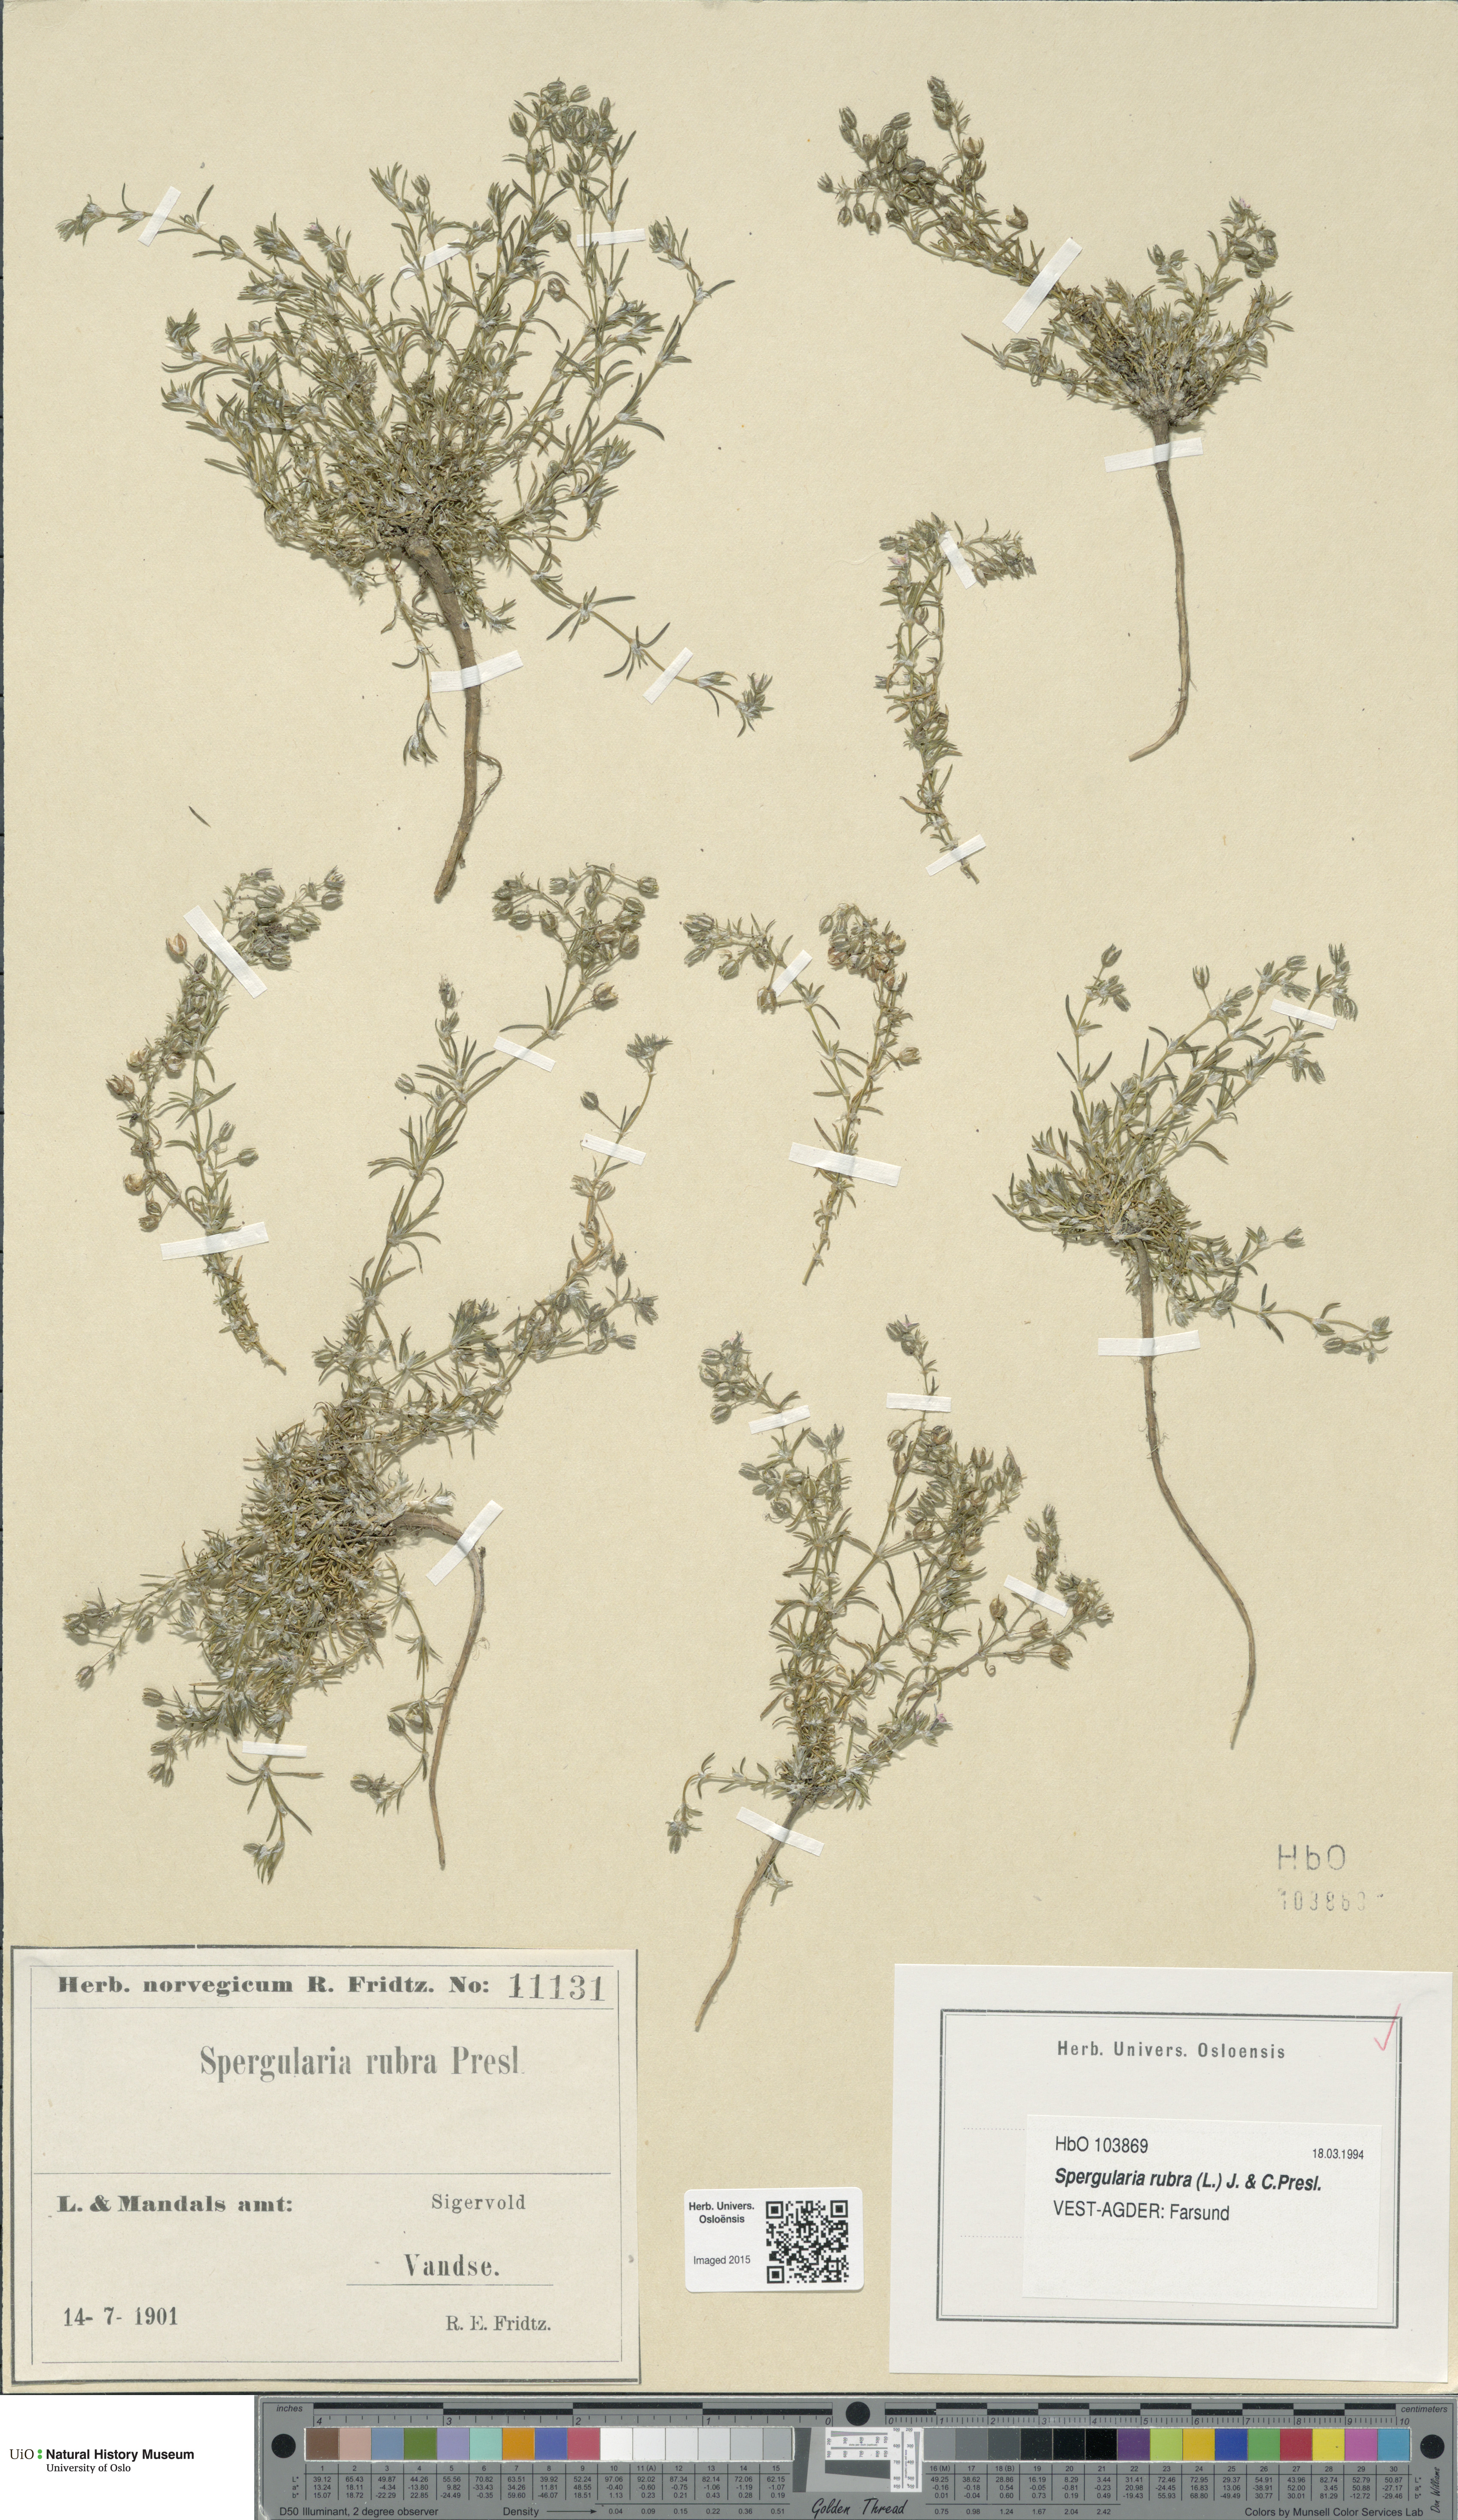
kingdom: Plantae
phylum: Tracheophyta
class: Magnoliopsida
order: Caryophyllales
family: Caryophyllaceae
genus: Spergularia
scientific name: Spergularia rubra
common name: Red sand-spurrey
